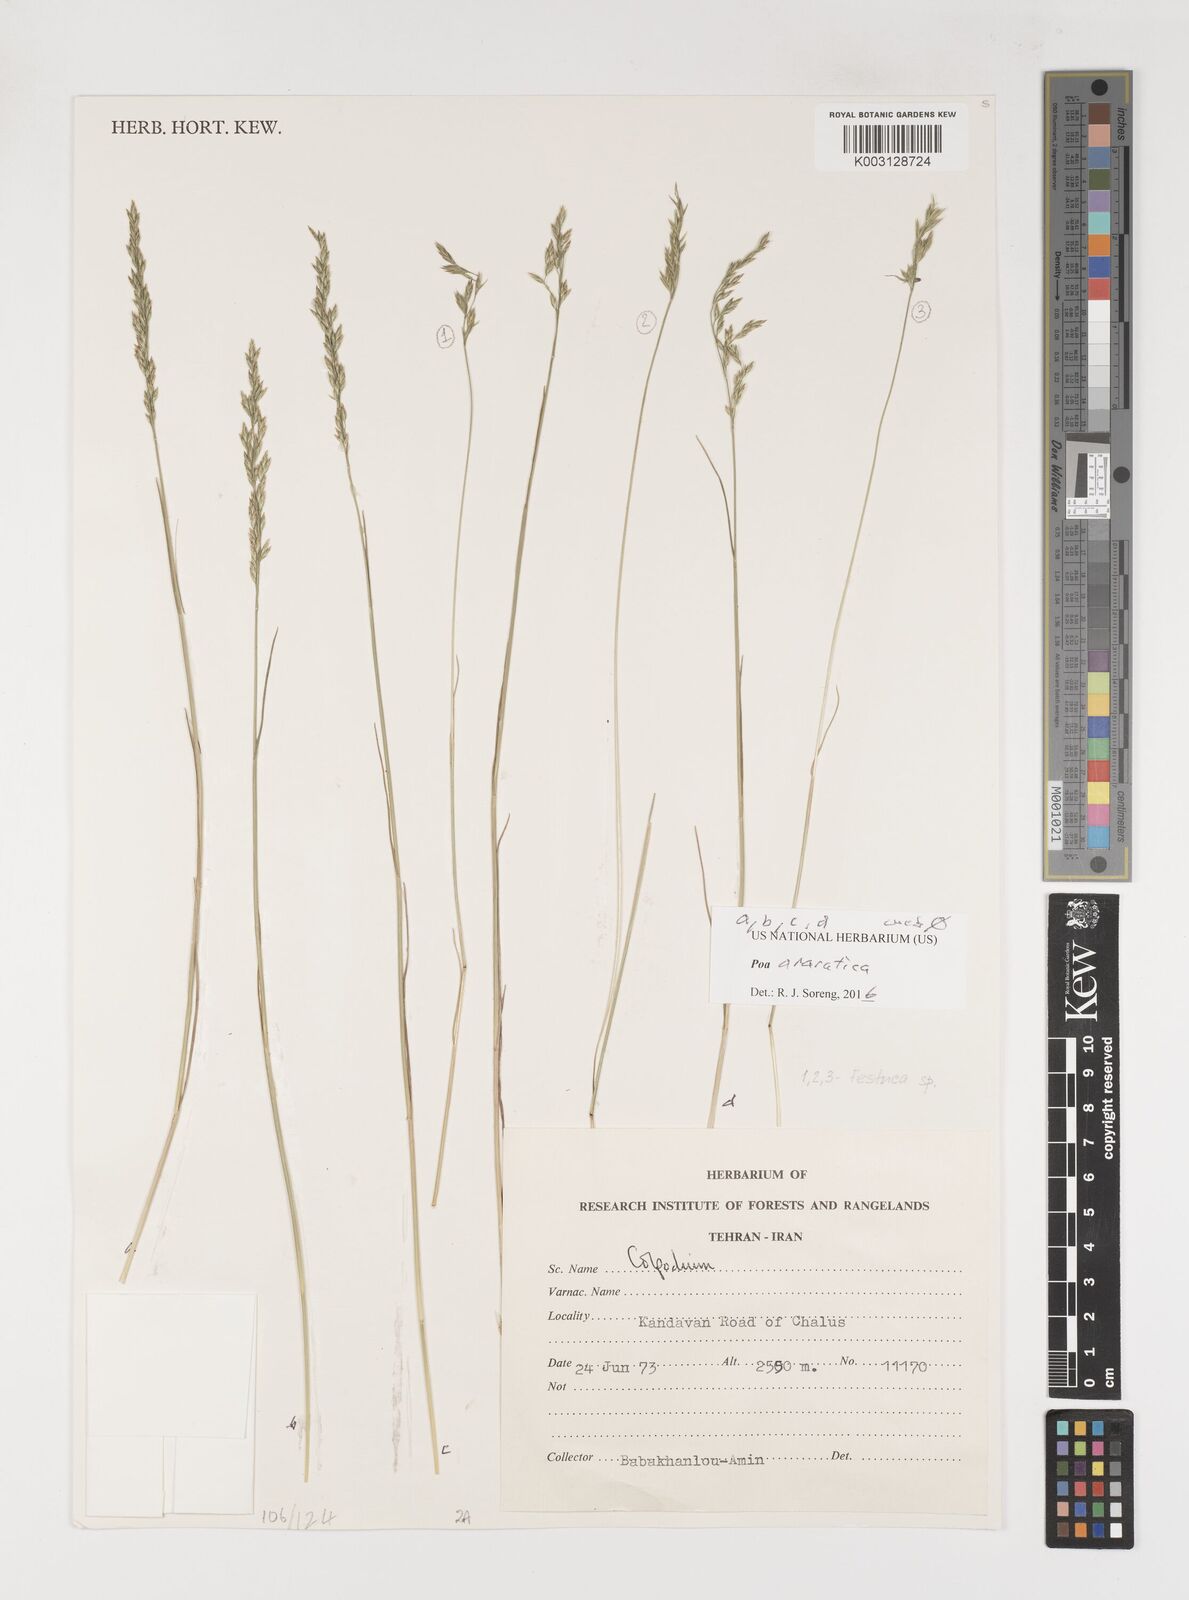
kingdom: Plantae
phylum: Tracheophyta
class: Liliopsida
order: Poales
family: Poaceae
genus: Poa
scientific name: Poa araratica
